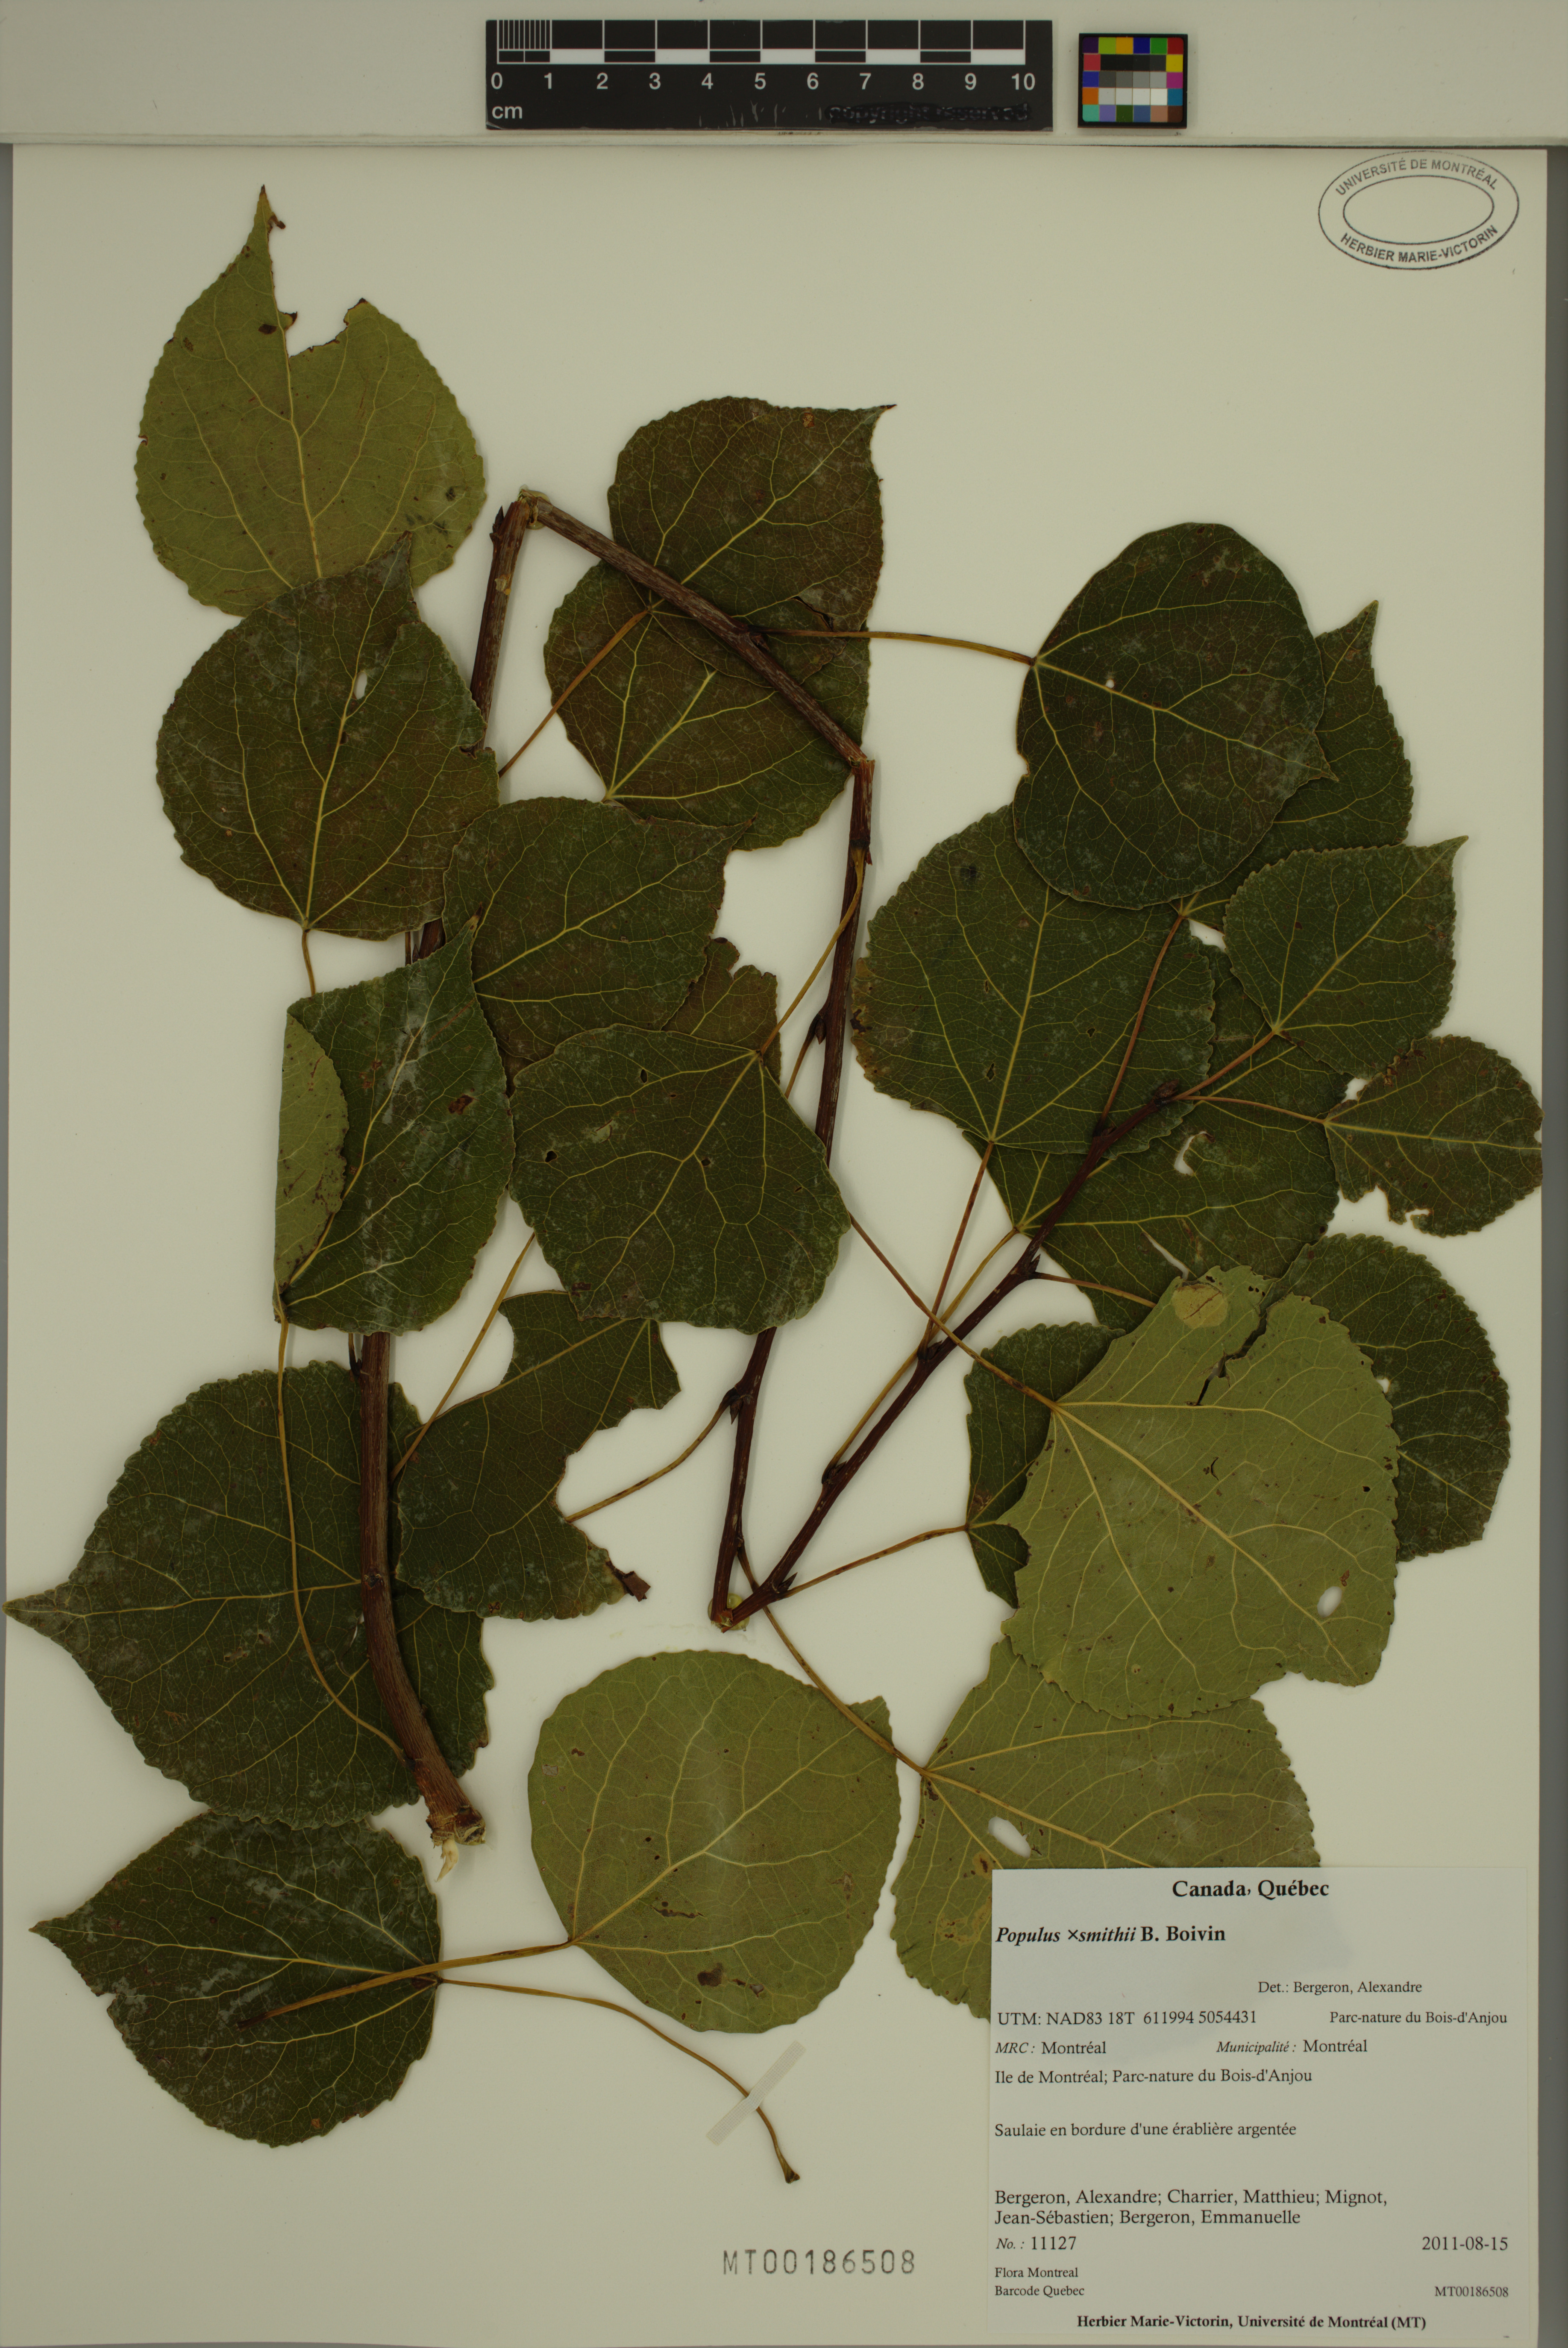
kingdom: Plantae
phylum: Tracheophyta
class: Magnoliopsida
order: Malpighiales
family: Salicaceae
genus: Populus
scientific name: Populus smithii
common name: Smith's aspen
